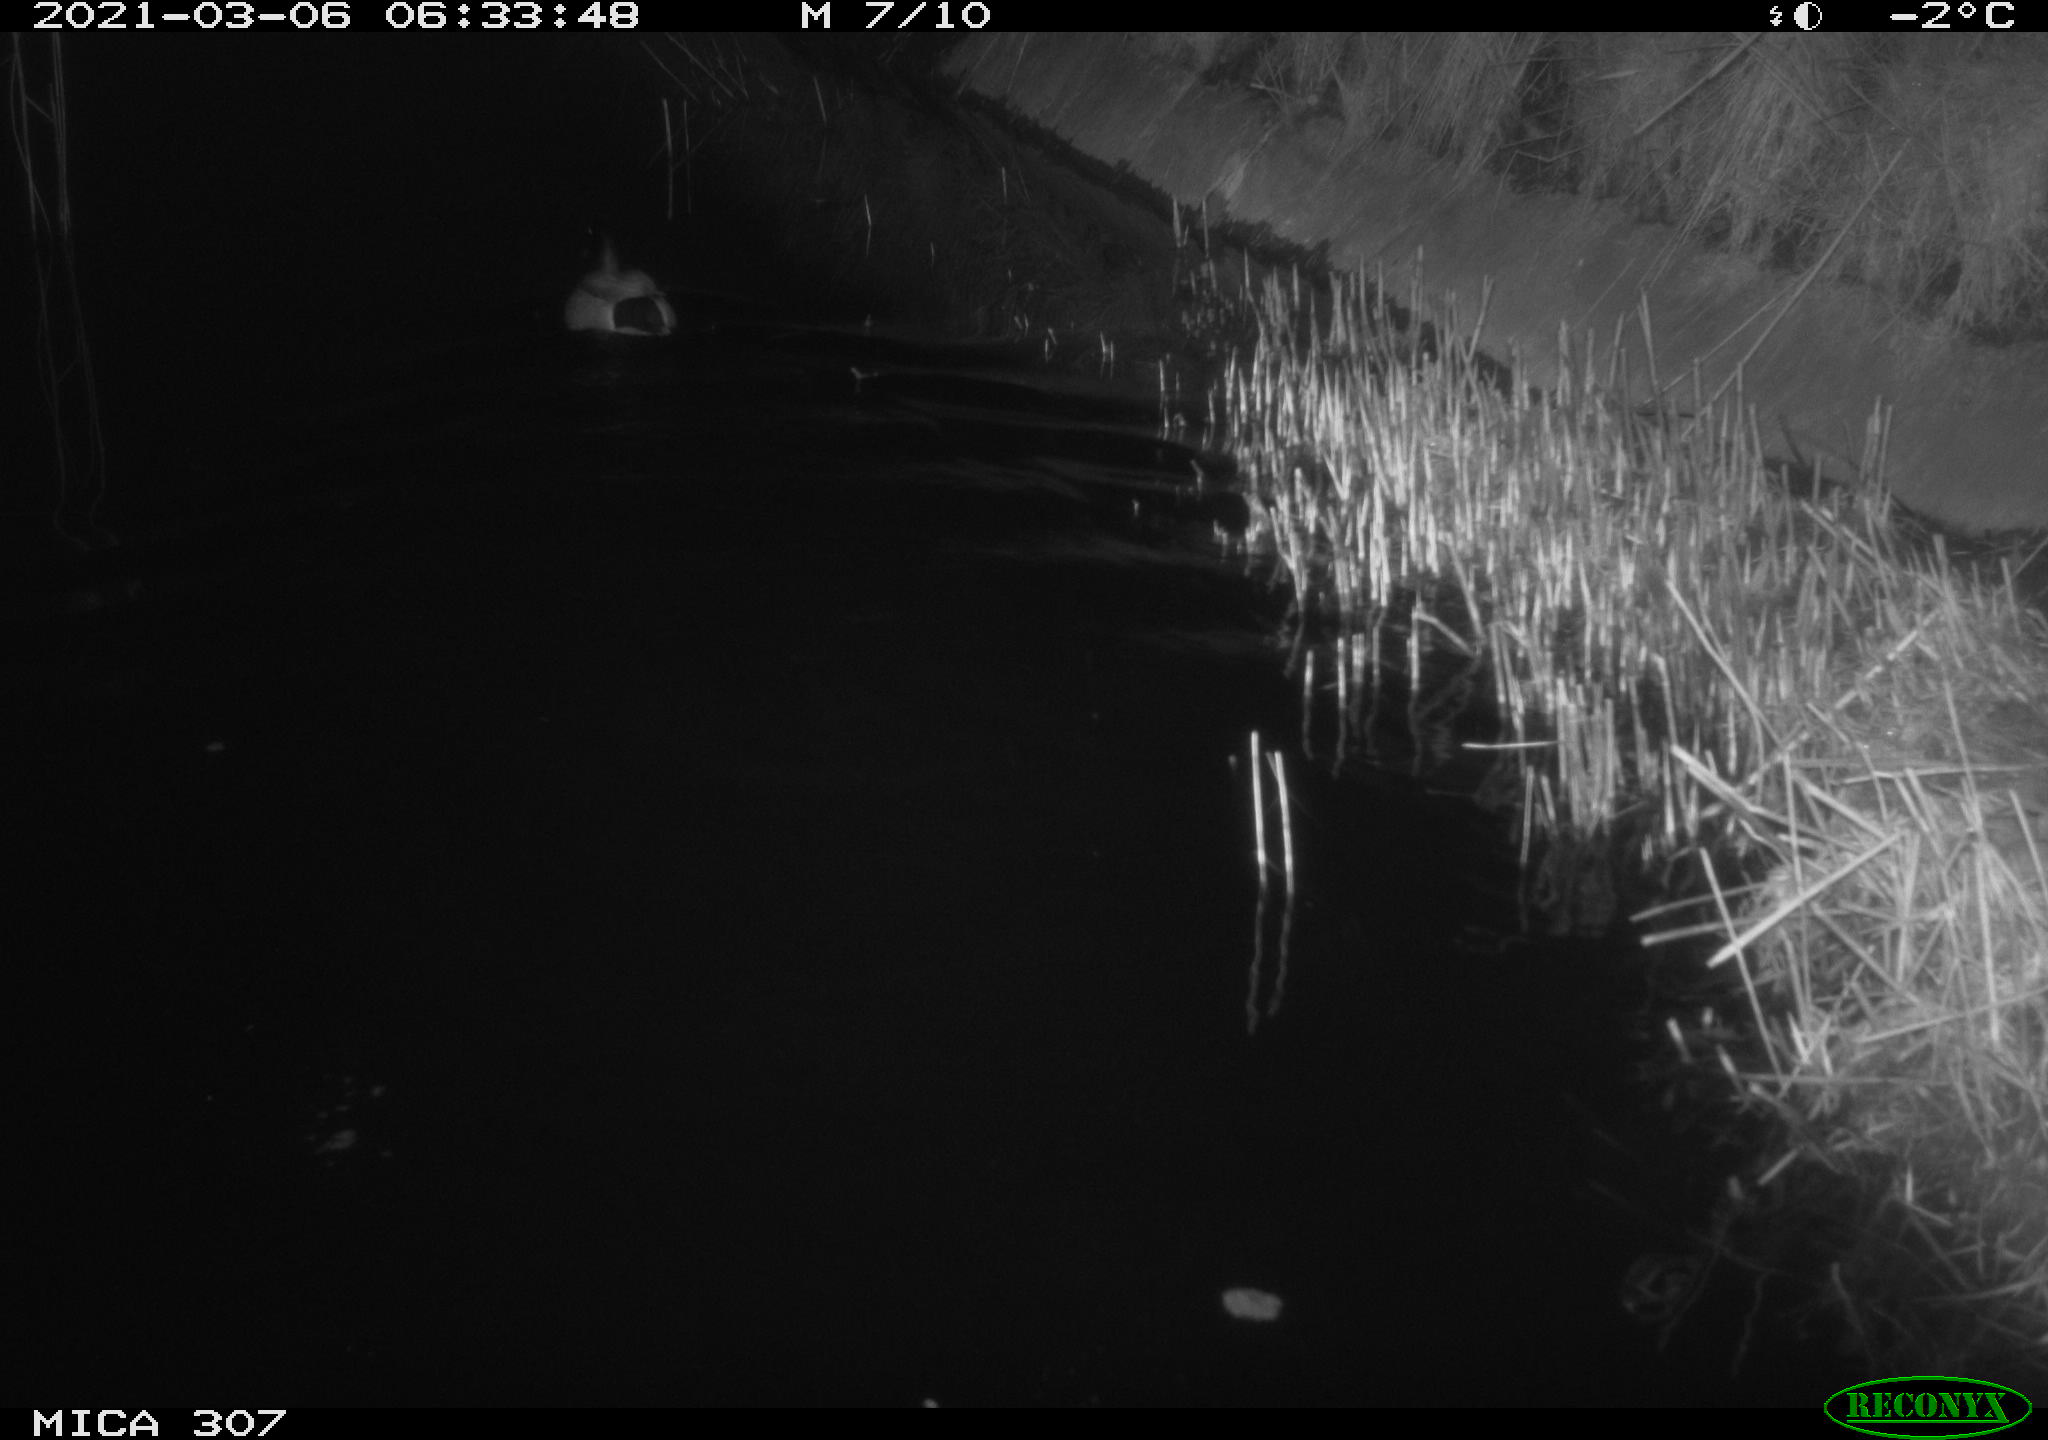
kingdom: Animalia
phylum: Chordata
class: Aves
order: Anseriformes
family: Anatidae
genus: Anas
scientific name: Anas platyrhynchos
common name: Mallard
